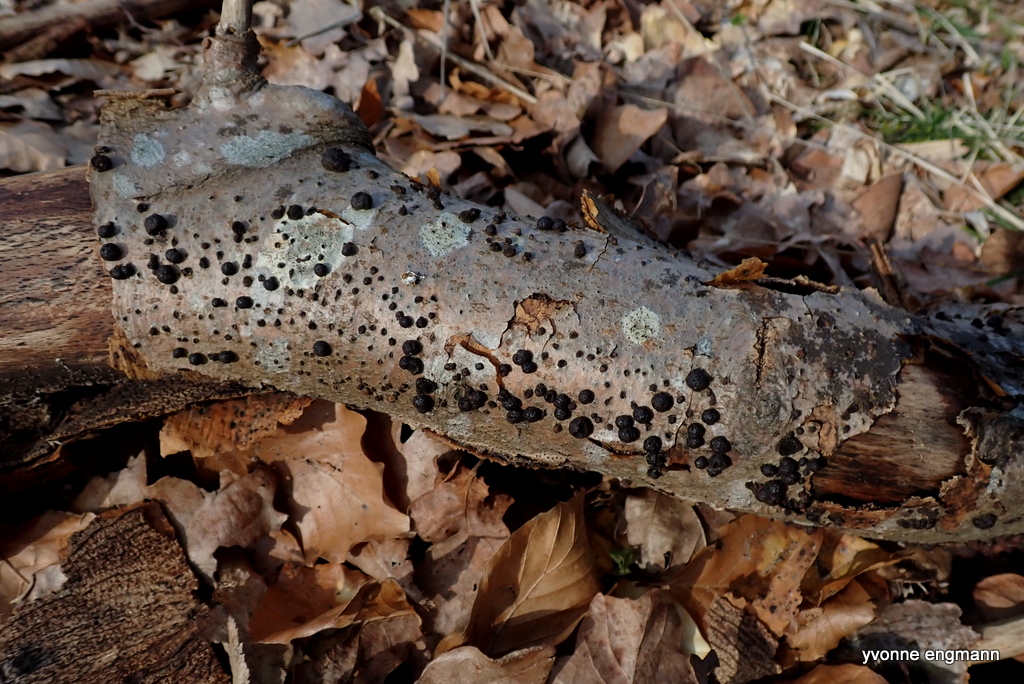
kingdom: Fungi
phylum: Ascomycota
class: Sordariomycetes
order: Xylariales
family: Hypoxylaceae
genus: Hypoxylon
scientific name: Hypoxylon fragiforme
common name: kuljordbær
